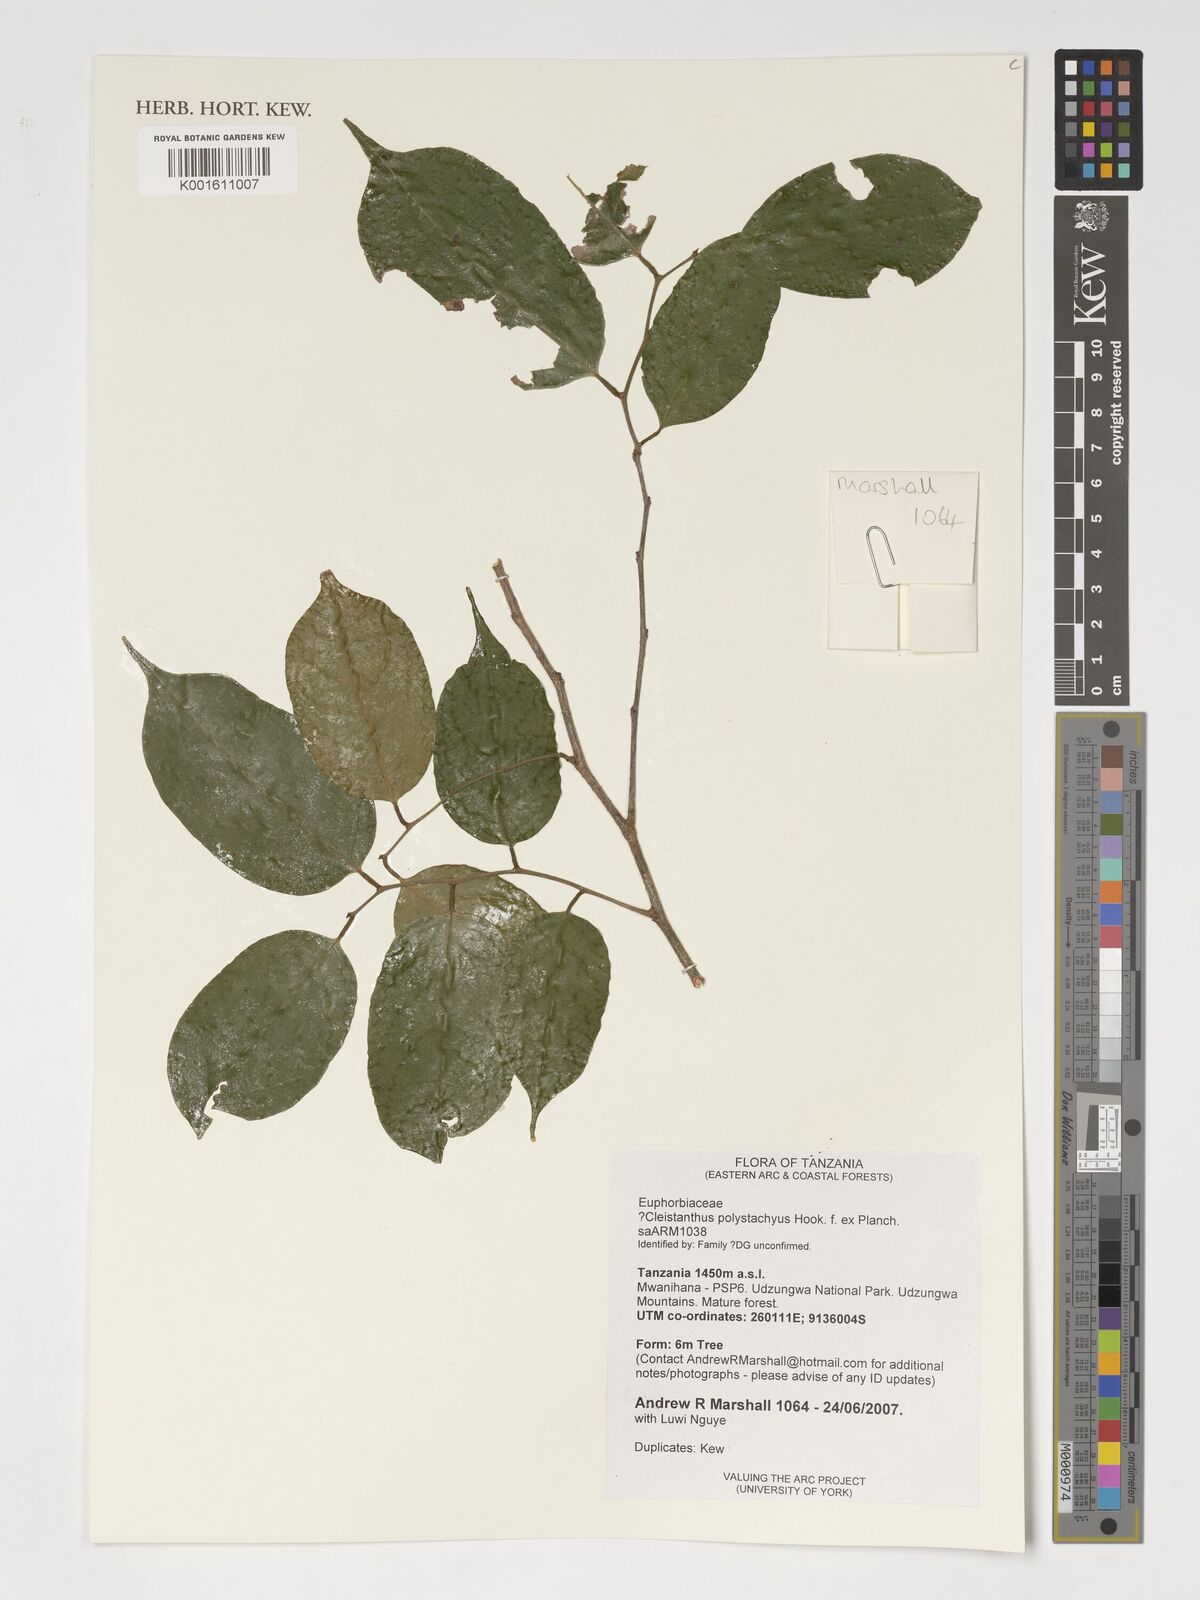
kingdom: Plantae
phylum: Tracheophyta
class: Magnoliopsida
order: Malpighiales
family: Phyllanthaceae
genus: Cleistanthus
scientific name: Cleistanthus polystachyus
